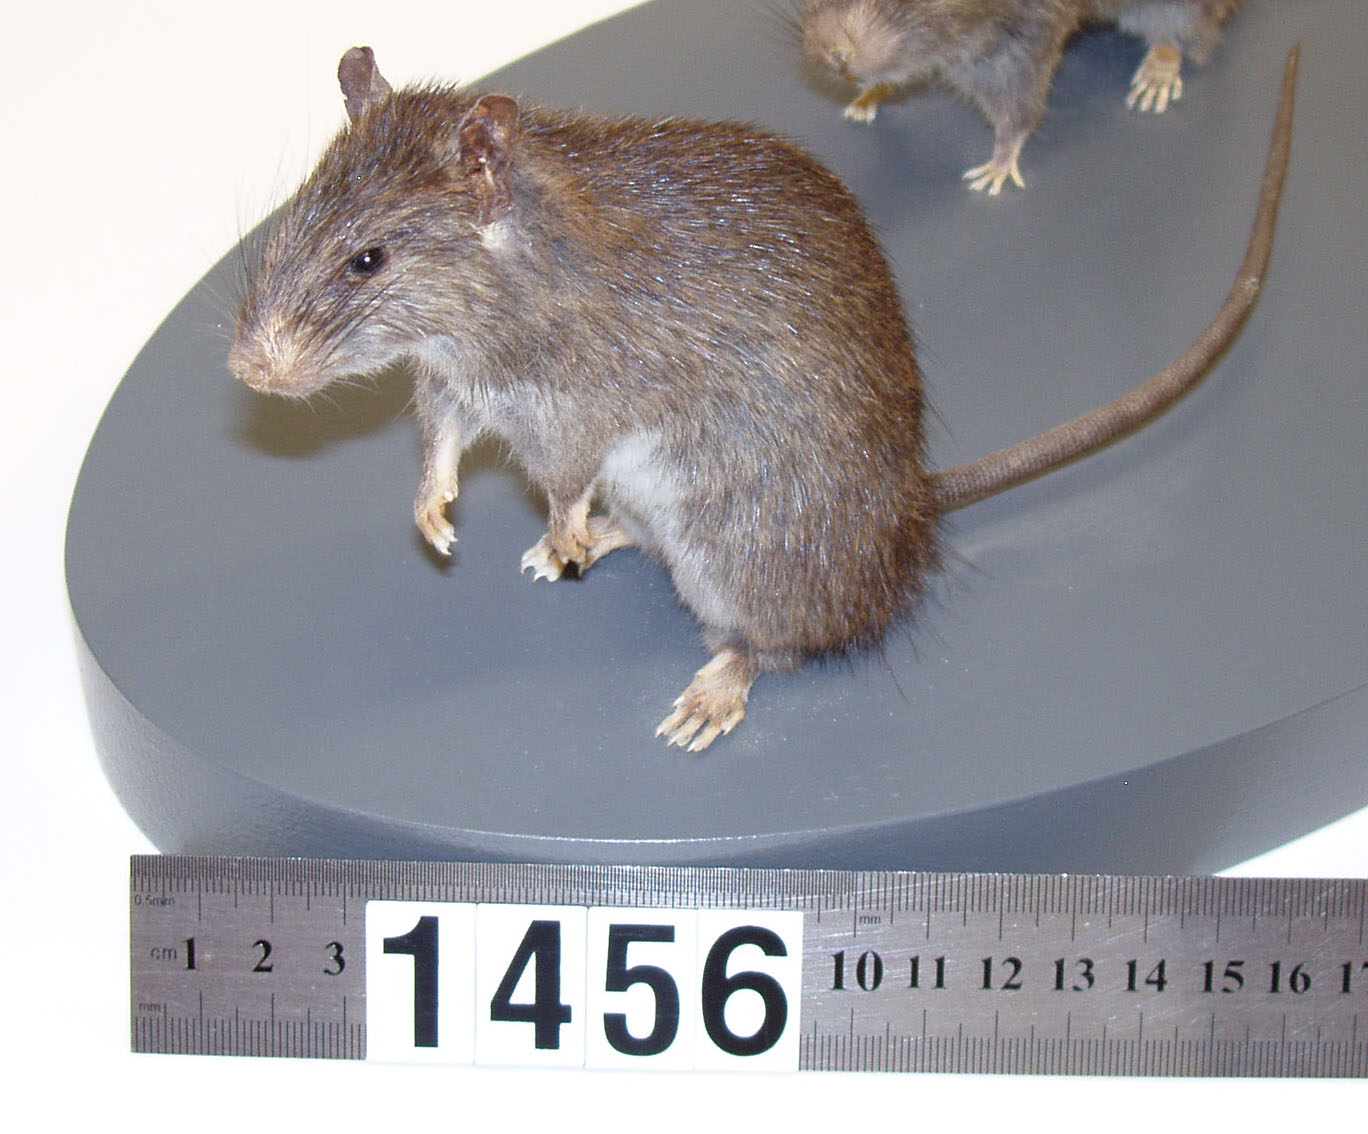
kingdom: Animalia
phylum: Chordata
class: Mammalia
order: Rodentia
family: Muridae
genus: Rattus
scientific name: Rattus exulans
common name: Polynesian rat
